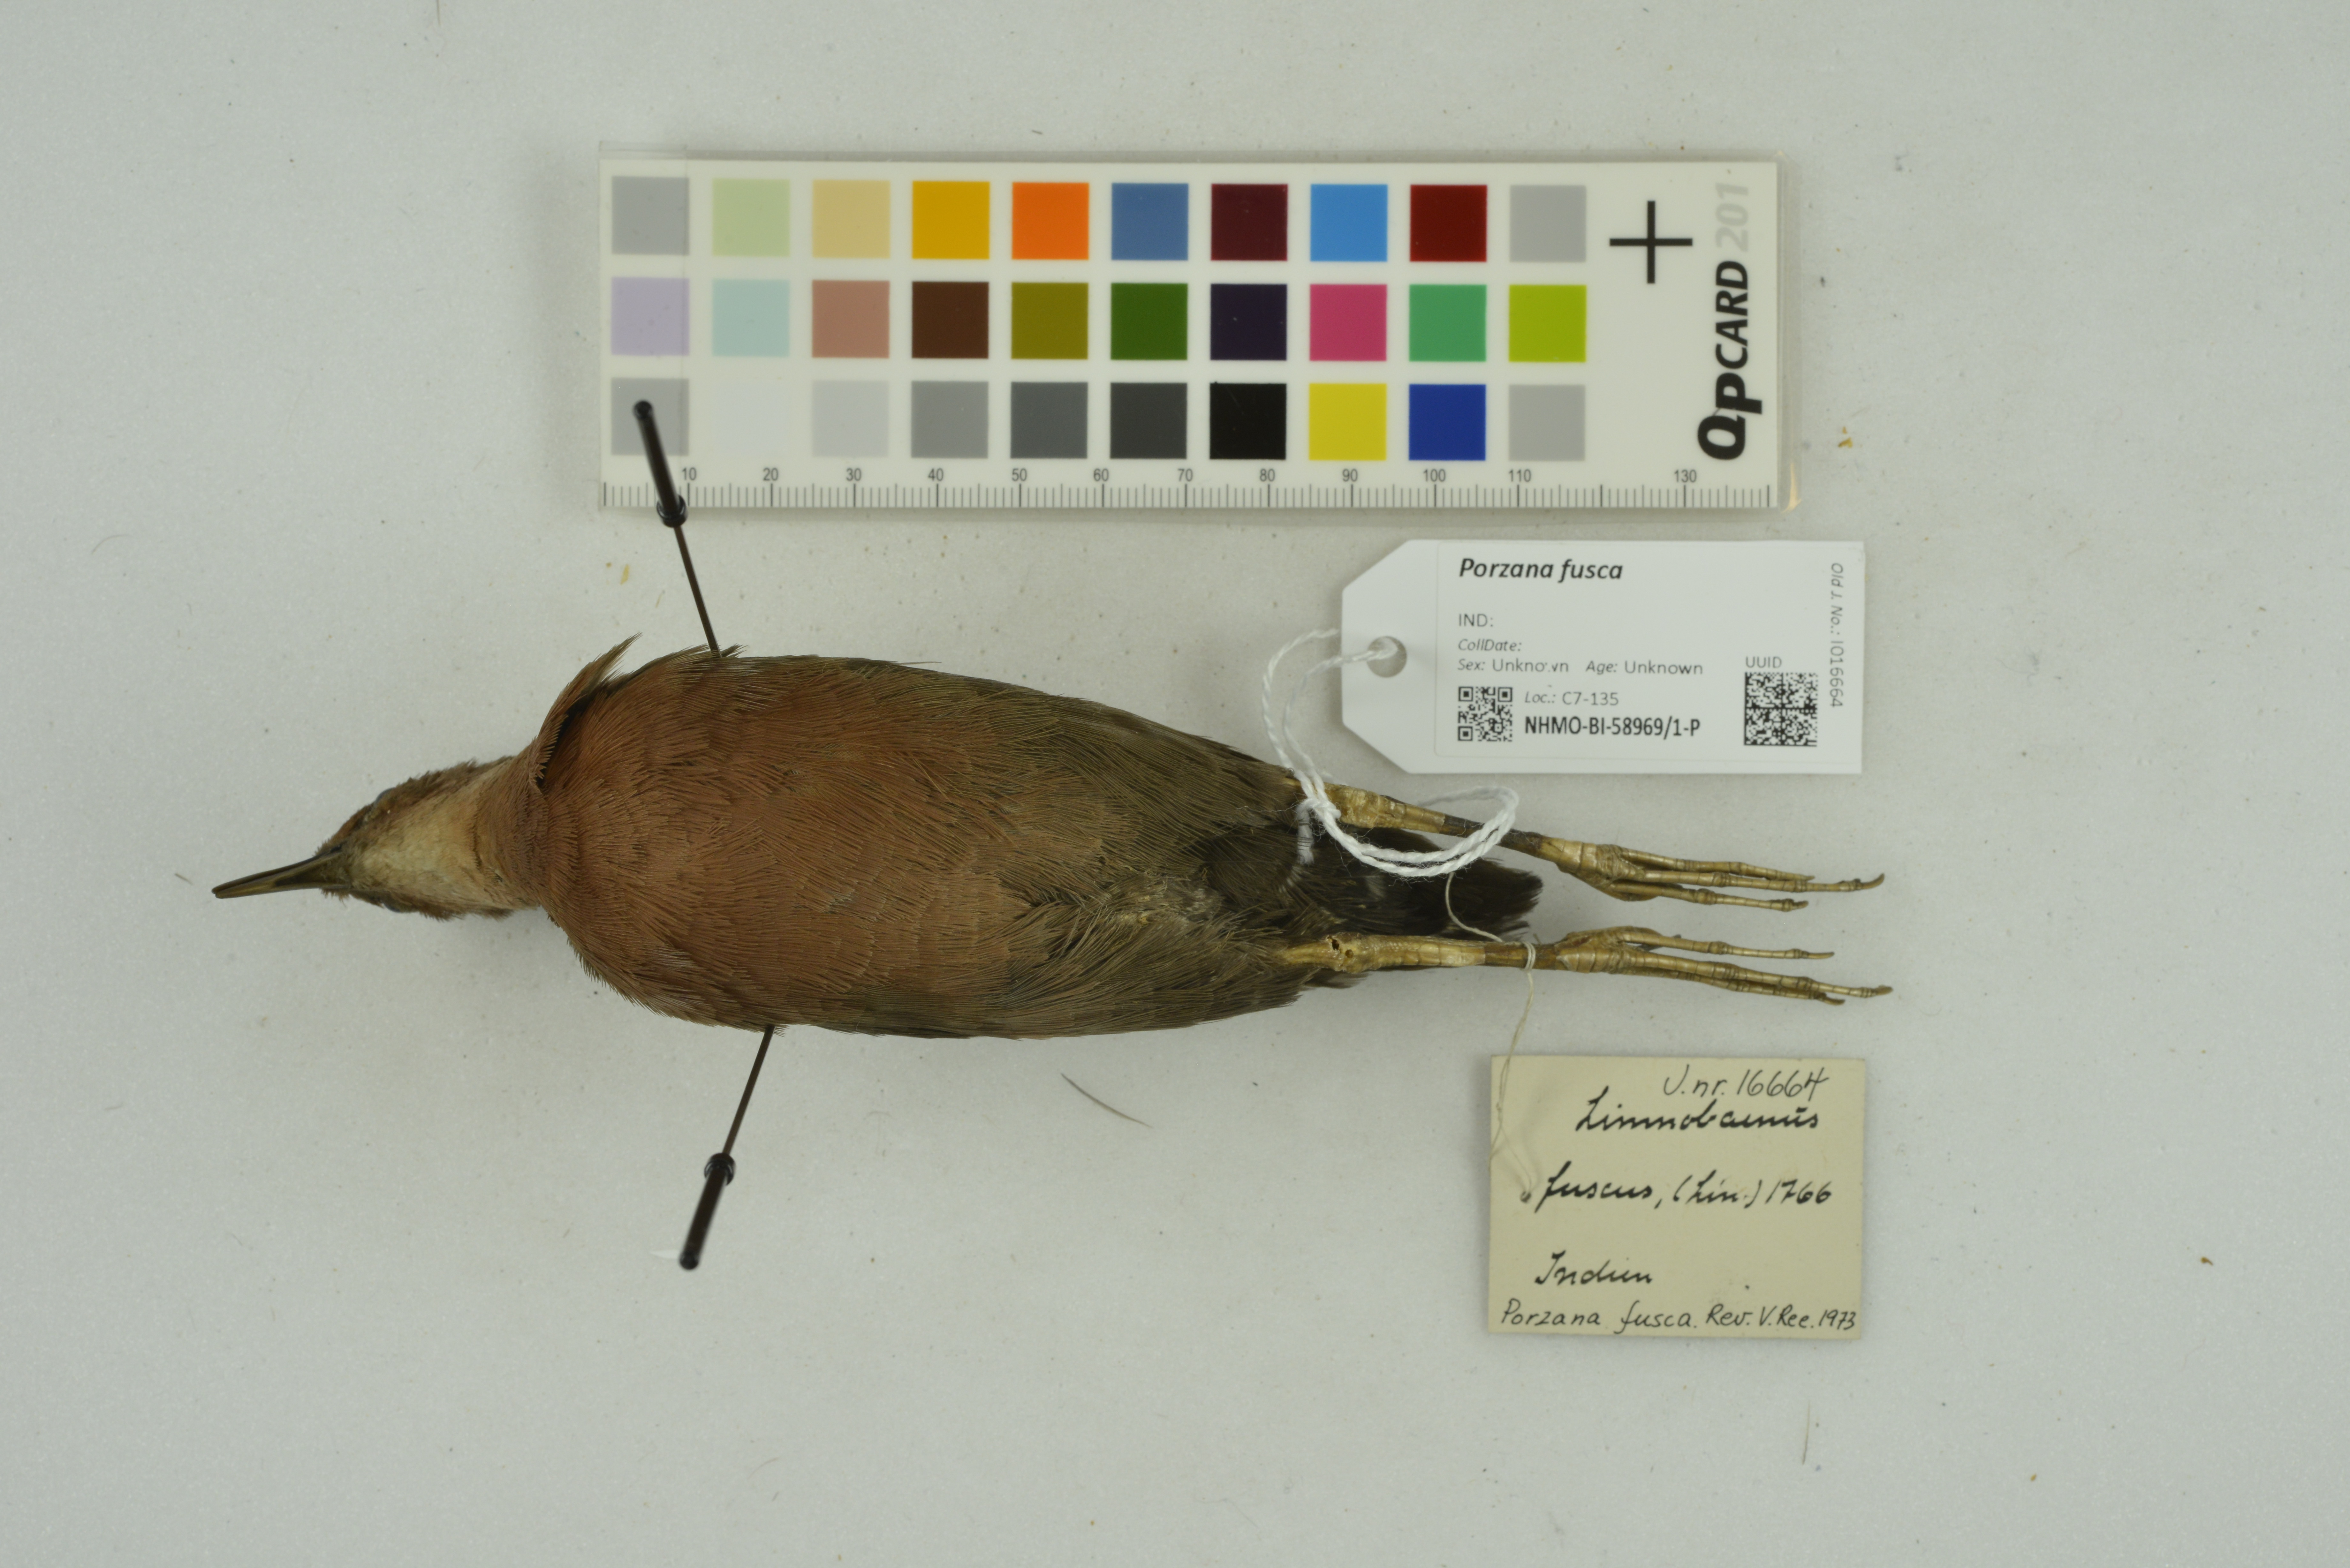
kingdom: Animalia
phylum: Chordata
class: Aves
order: Gruiformes
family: Rallidae
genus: Porzana
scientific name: Porzana fusca
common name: Ruddy-breasted crake
